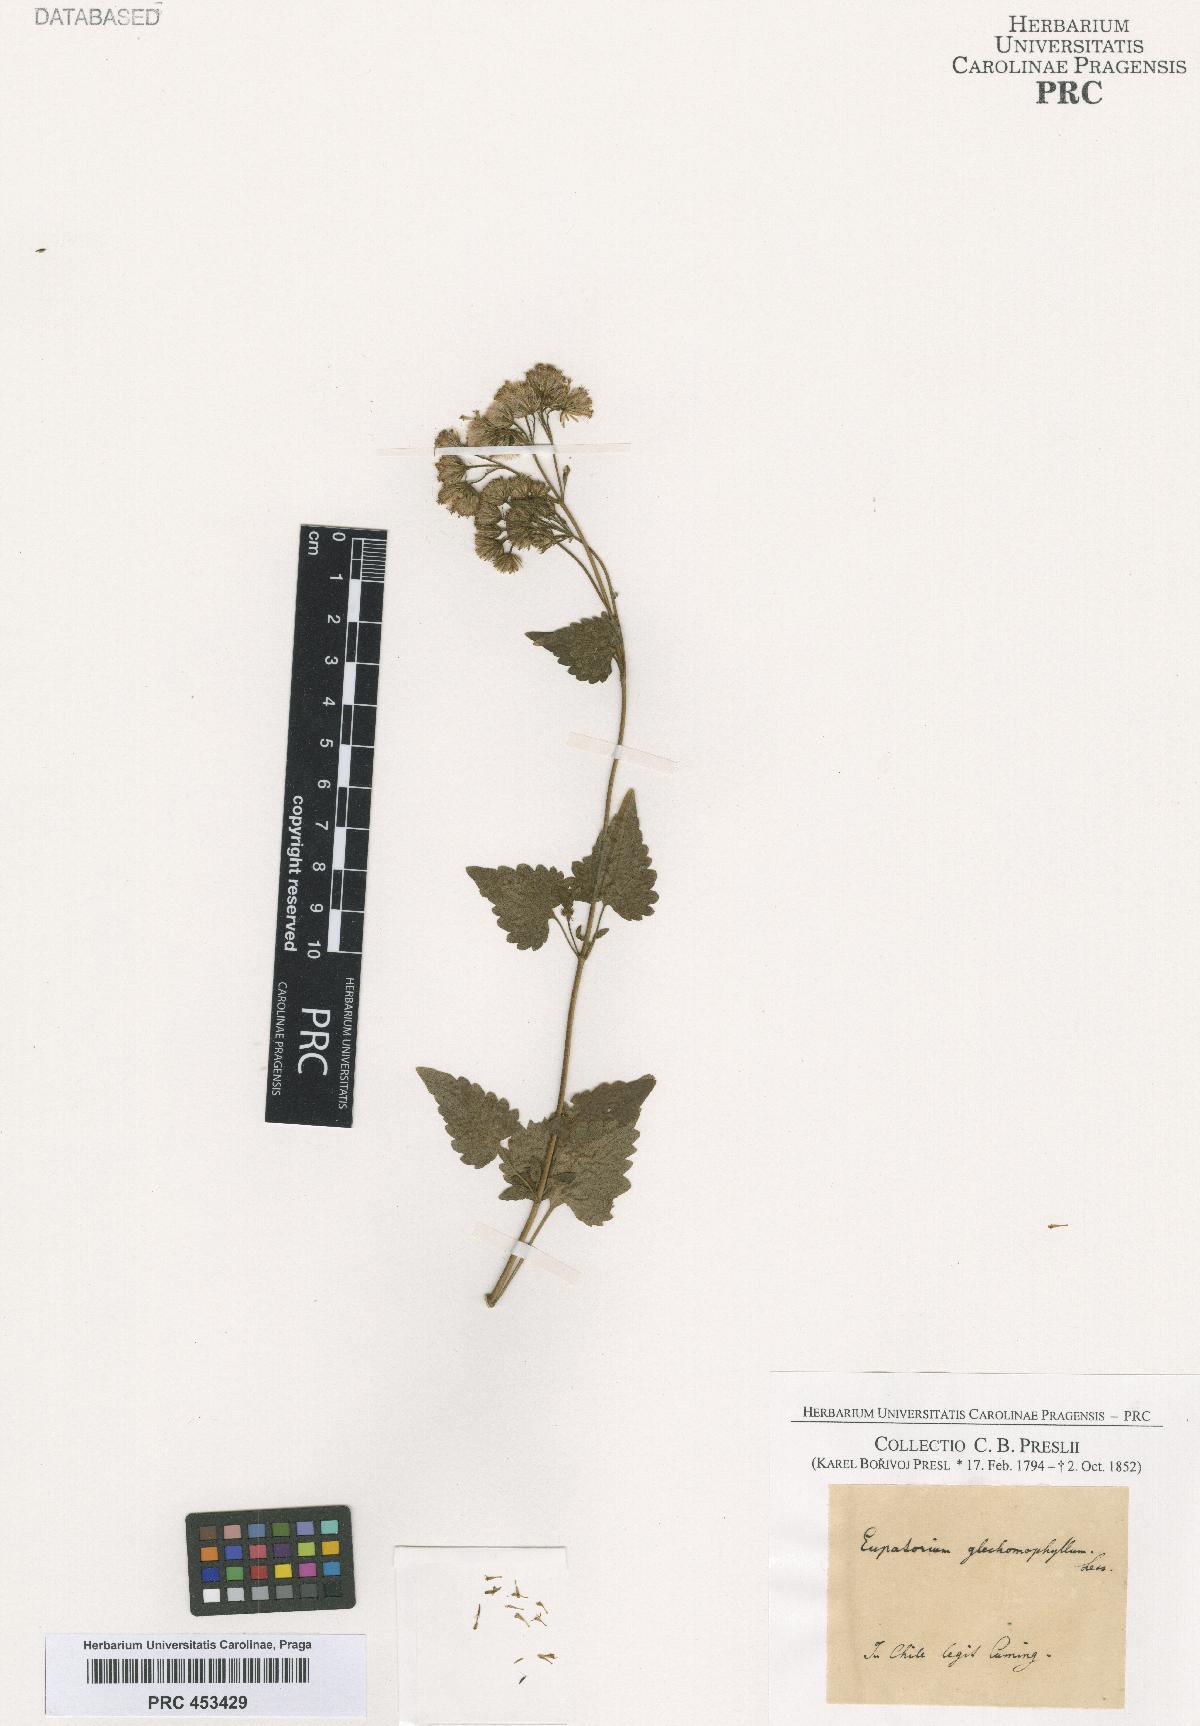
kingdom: Plantae
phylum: Tracheophyta
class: Magnoliopsida
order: Asterales
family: Asteraceae
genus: Eupatorium
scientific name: Eupatorium
